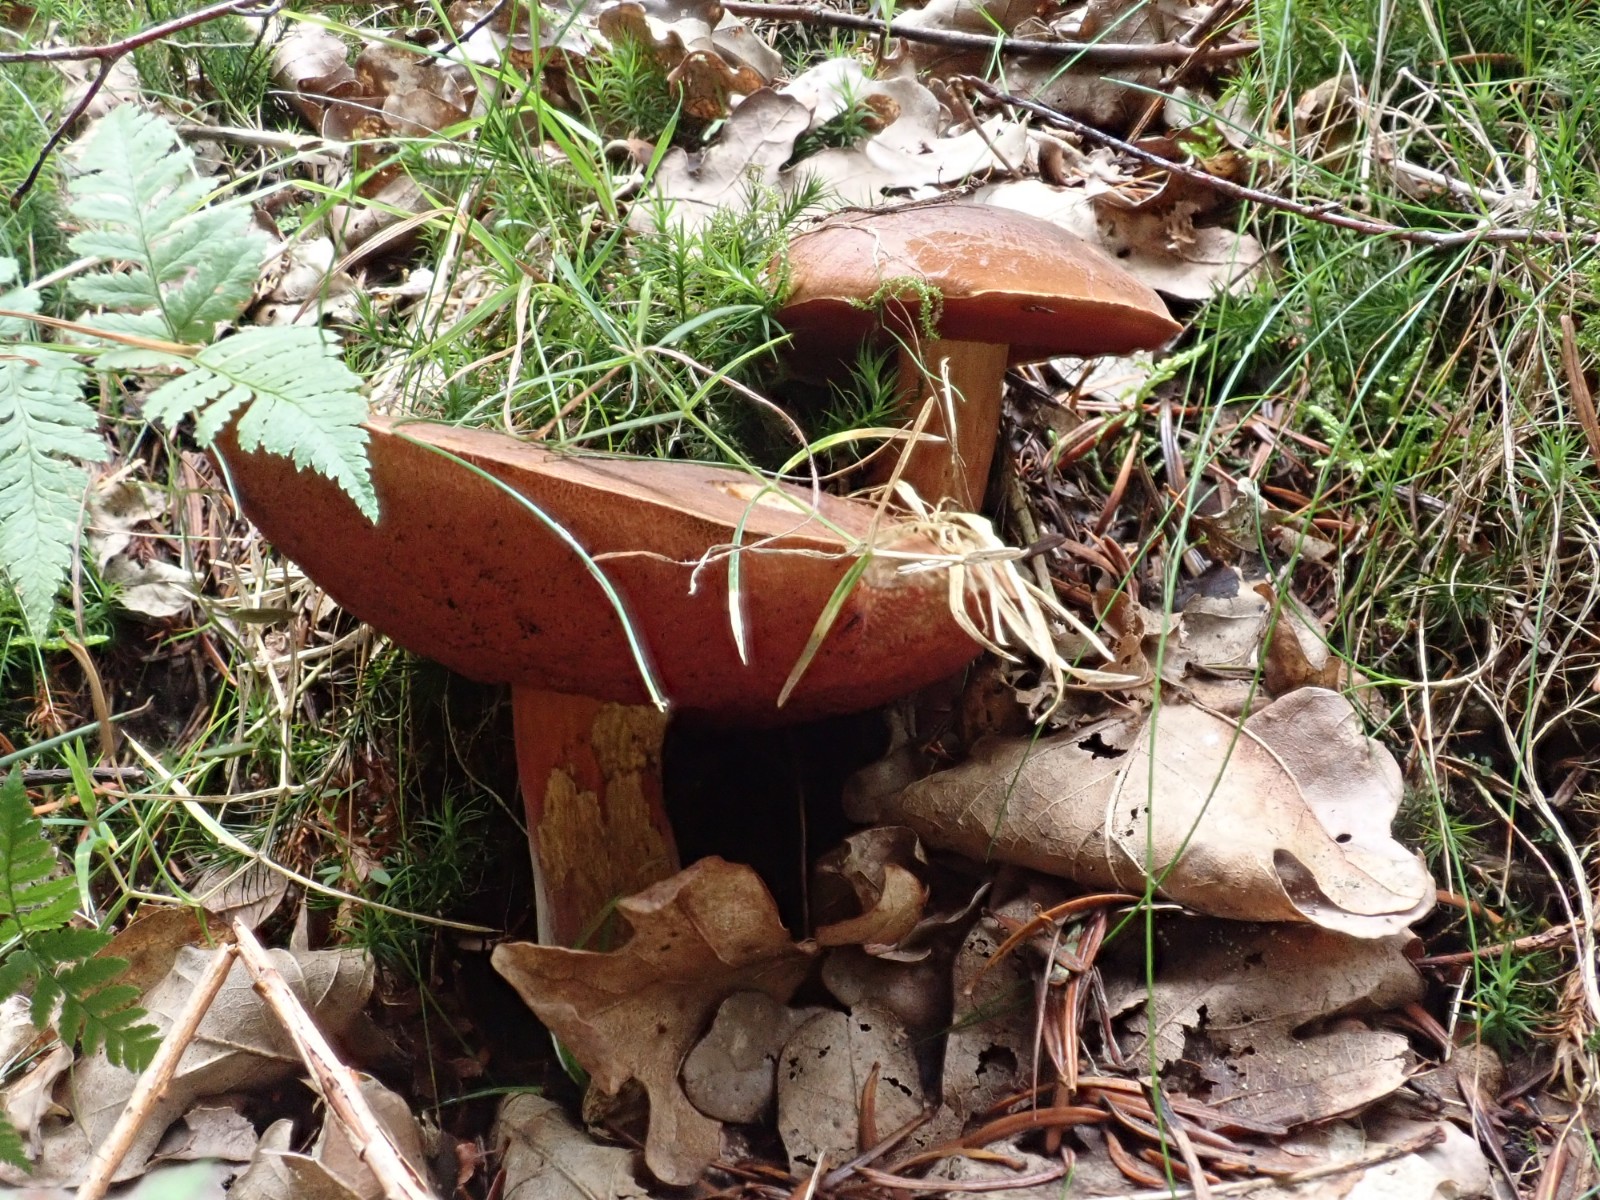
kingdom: Fungi
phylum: Basidiomycota
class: Agaricomycetes
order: Boletales
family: Boletaceae
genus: Neoboletus
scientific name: Neoboletus erythropus
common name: punktstokket indigorørhat
